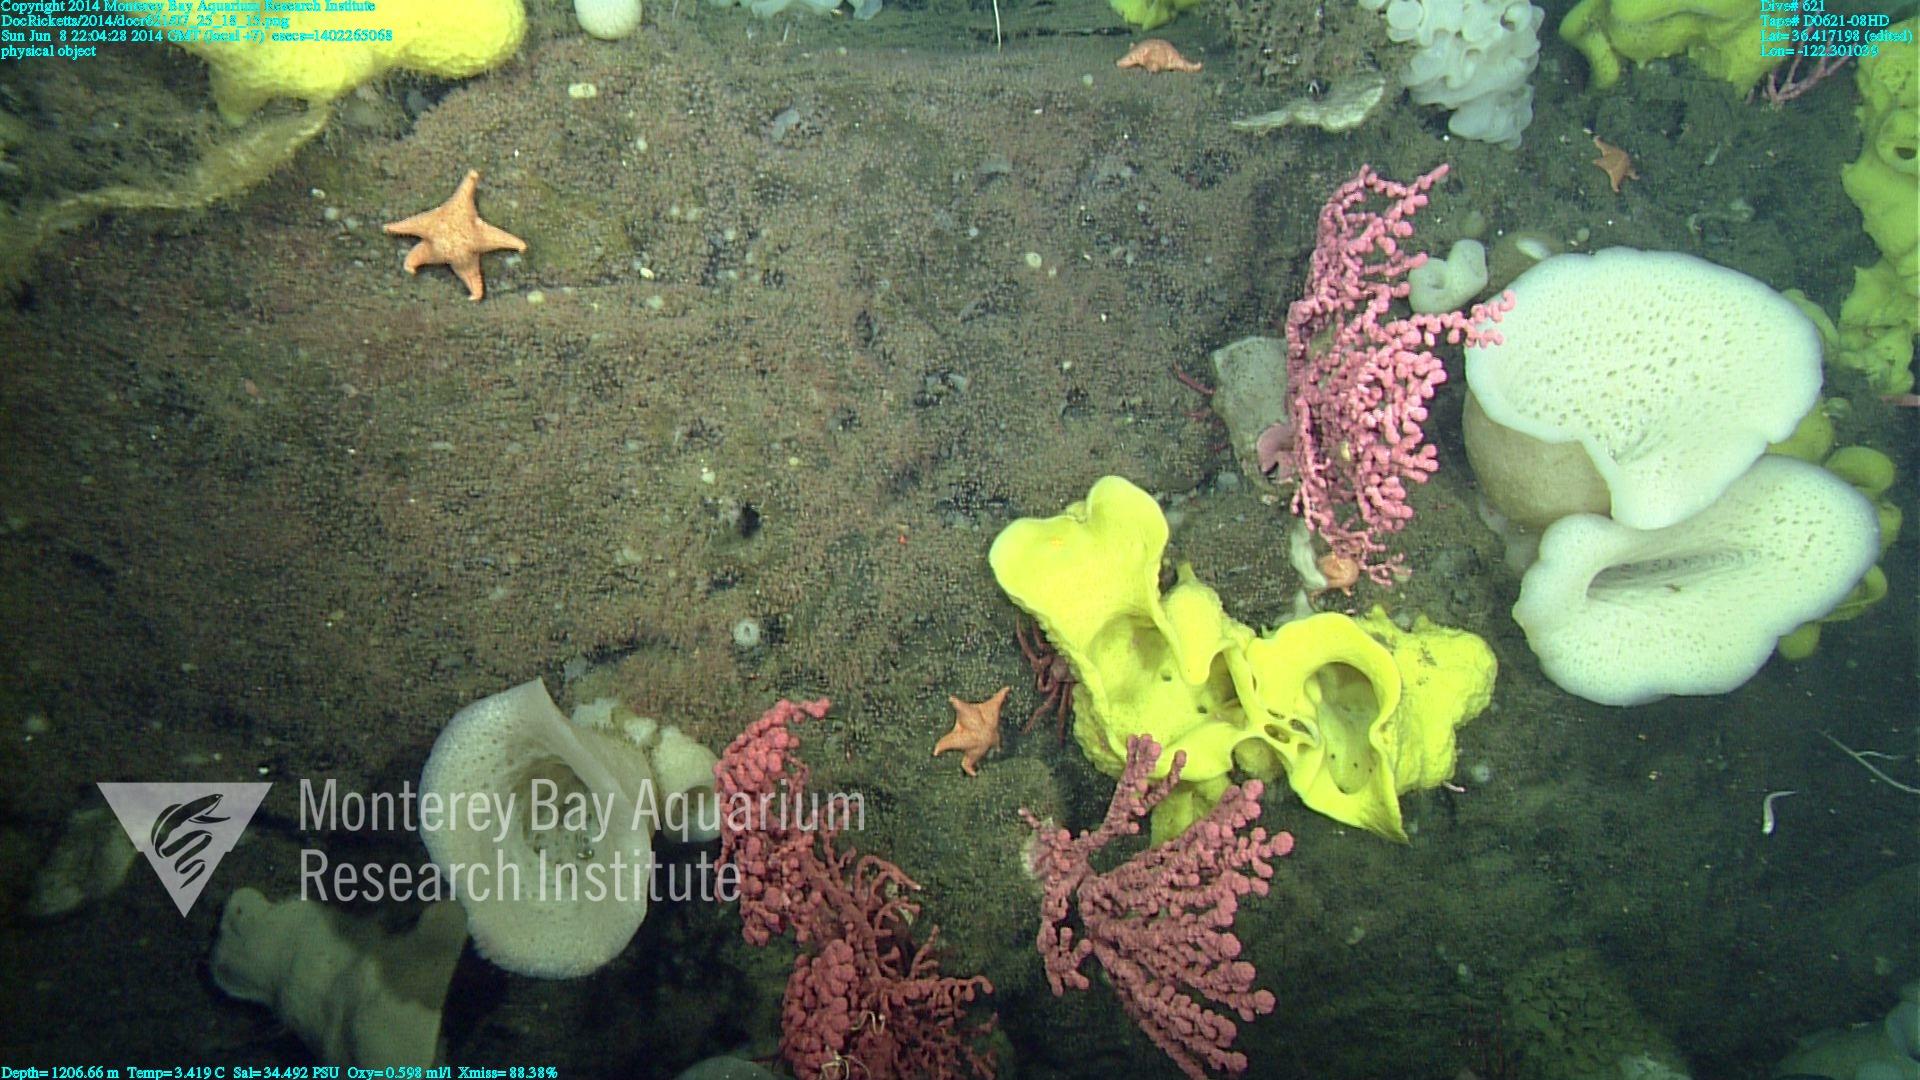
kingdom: Animalia
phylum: Cnidaria
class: Anthozoa
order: Scleralcyonacea
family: Coralliidae
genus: Paragorgia
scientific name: Paragorgia arborea
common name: Bubble gum coral
